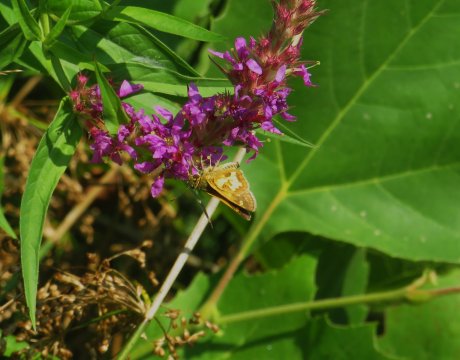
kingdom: Animalia
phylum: Arthropoda
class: Insecta
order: Lepidoptera
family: Hesperiidae
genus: Polites
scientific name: Polites coras
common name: Peck's Skipper
